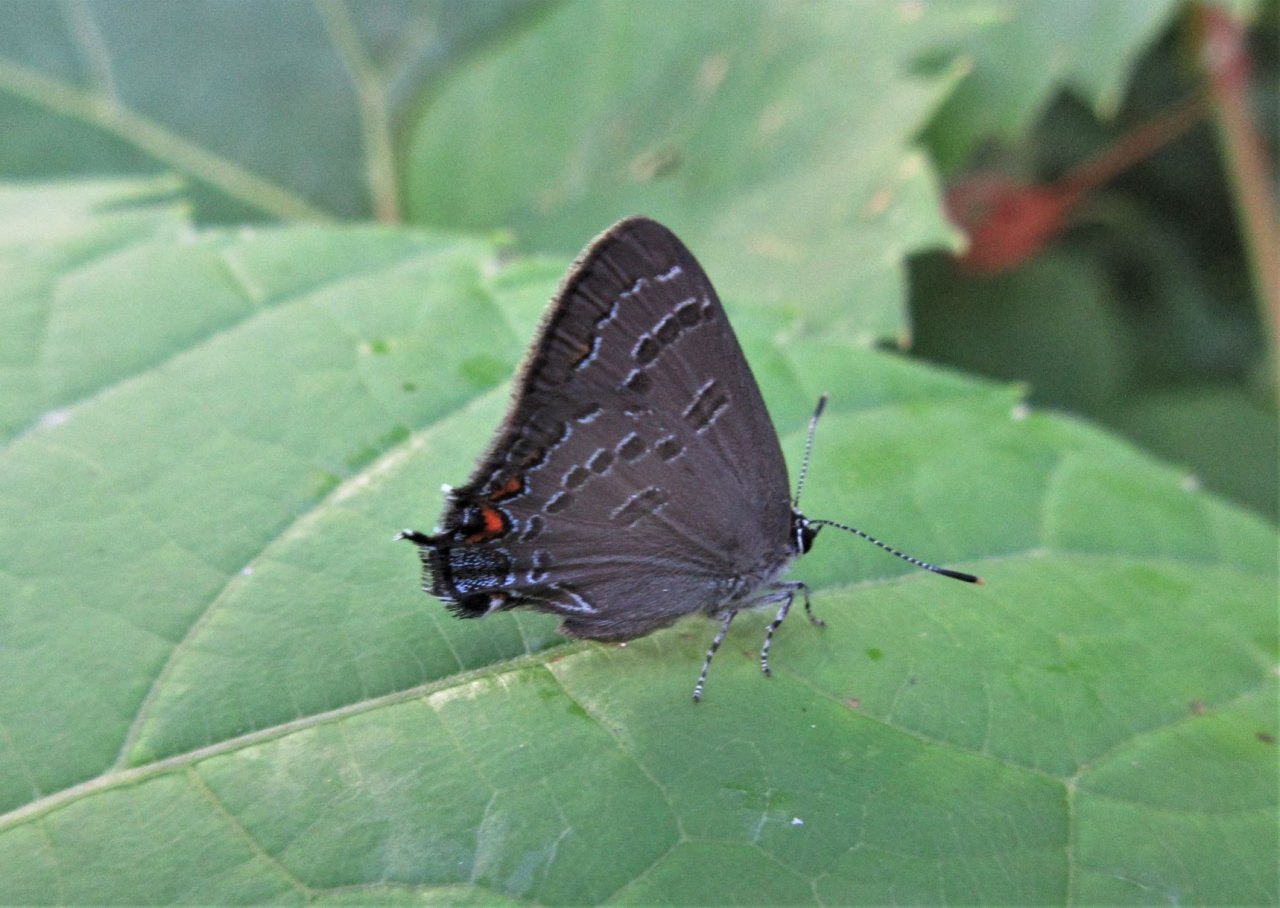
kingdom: Animalia
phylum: Arthropoda
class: Insecta
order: Lepidoptera
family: Lycaenidae
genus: Satyrium
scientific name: Satyrium calanus
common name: Banded Hairstreak
